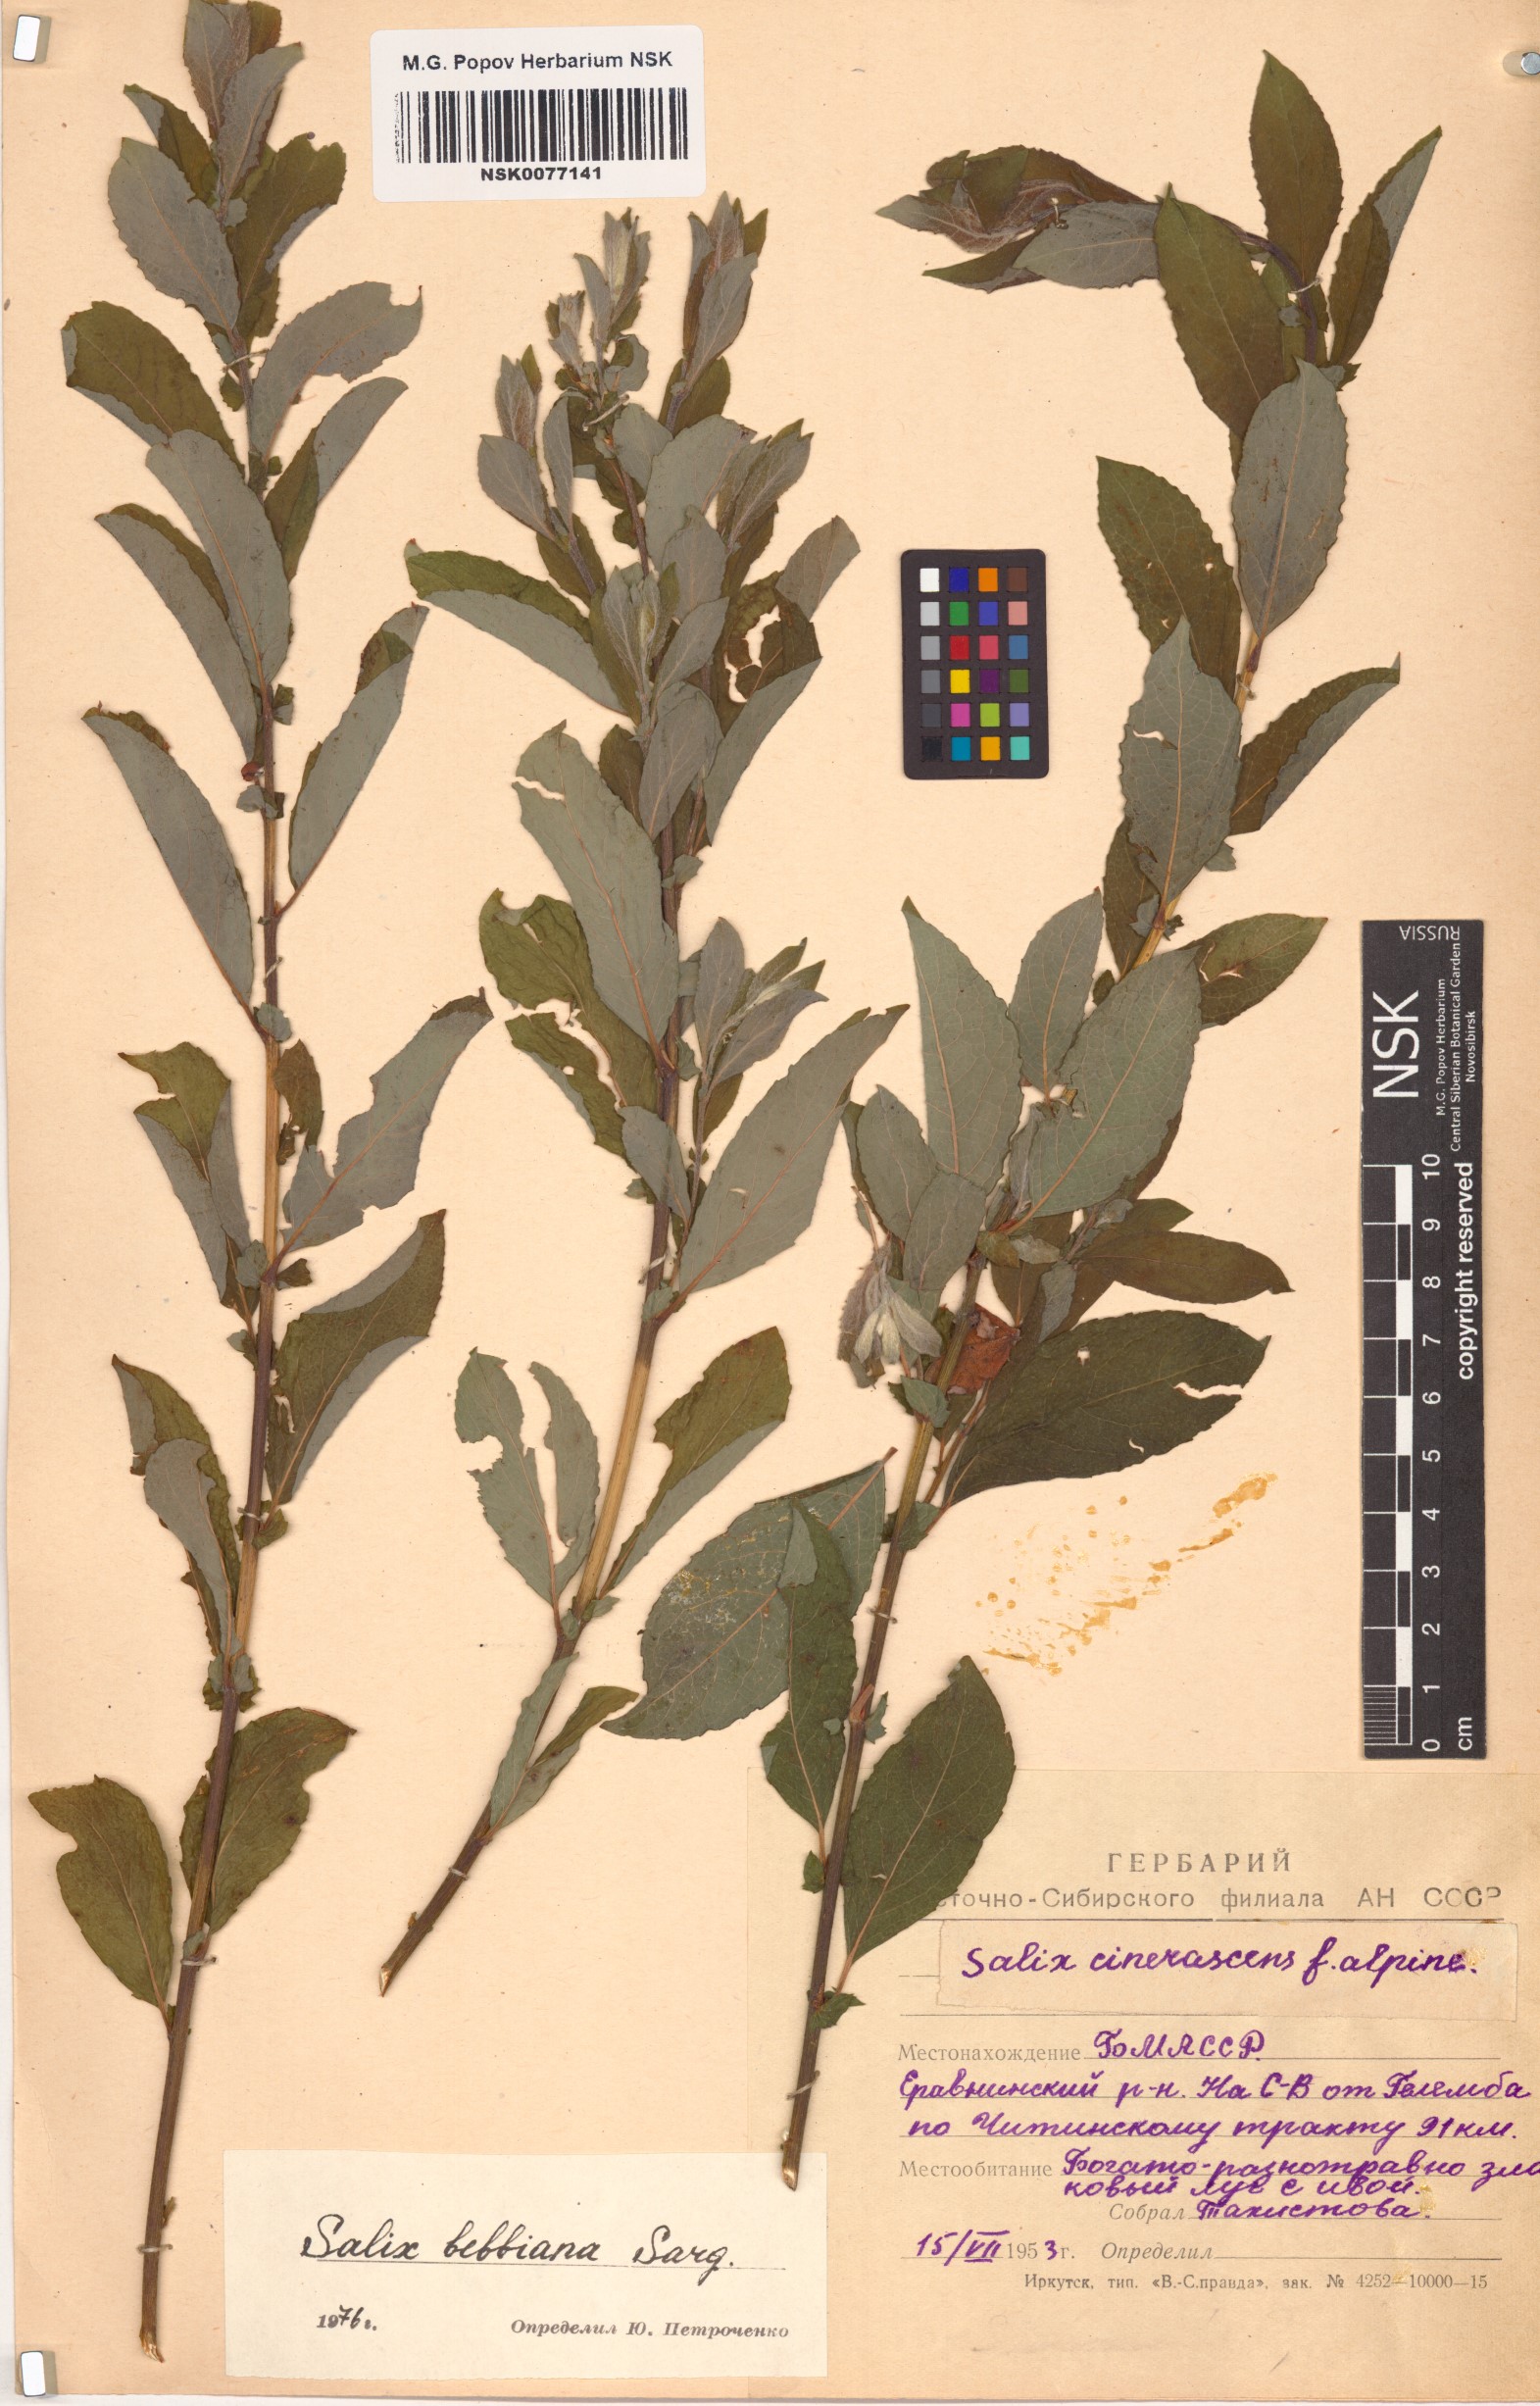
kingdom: Plantae
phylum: Tracheophyta
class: Magnoliopsida
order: Malpighiales
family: Salicaceae
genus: Salix
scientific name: Salix bebbiana
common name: Bebb's willow
